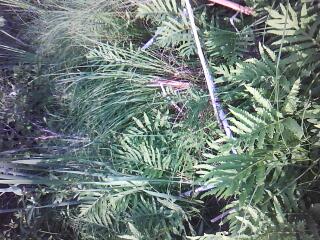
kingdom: Plantae
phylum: Tracheophyta
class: Liliopsida
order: Poales
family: Typhaceae
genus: Typha
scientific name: Typha angustifolia
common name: Lesser bulrush
